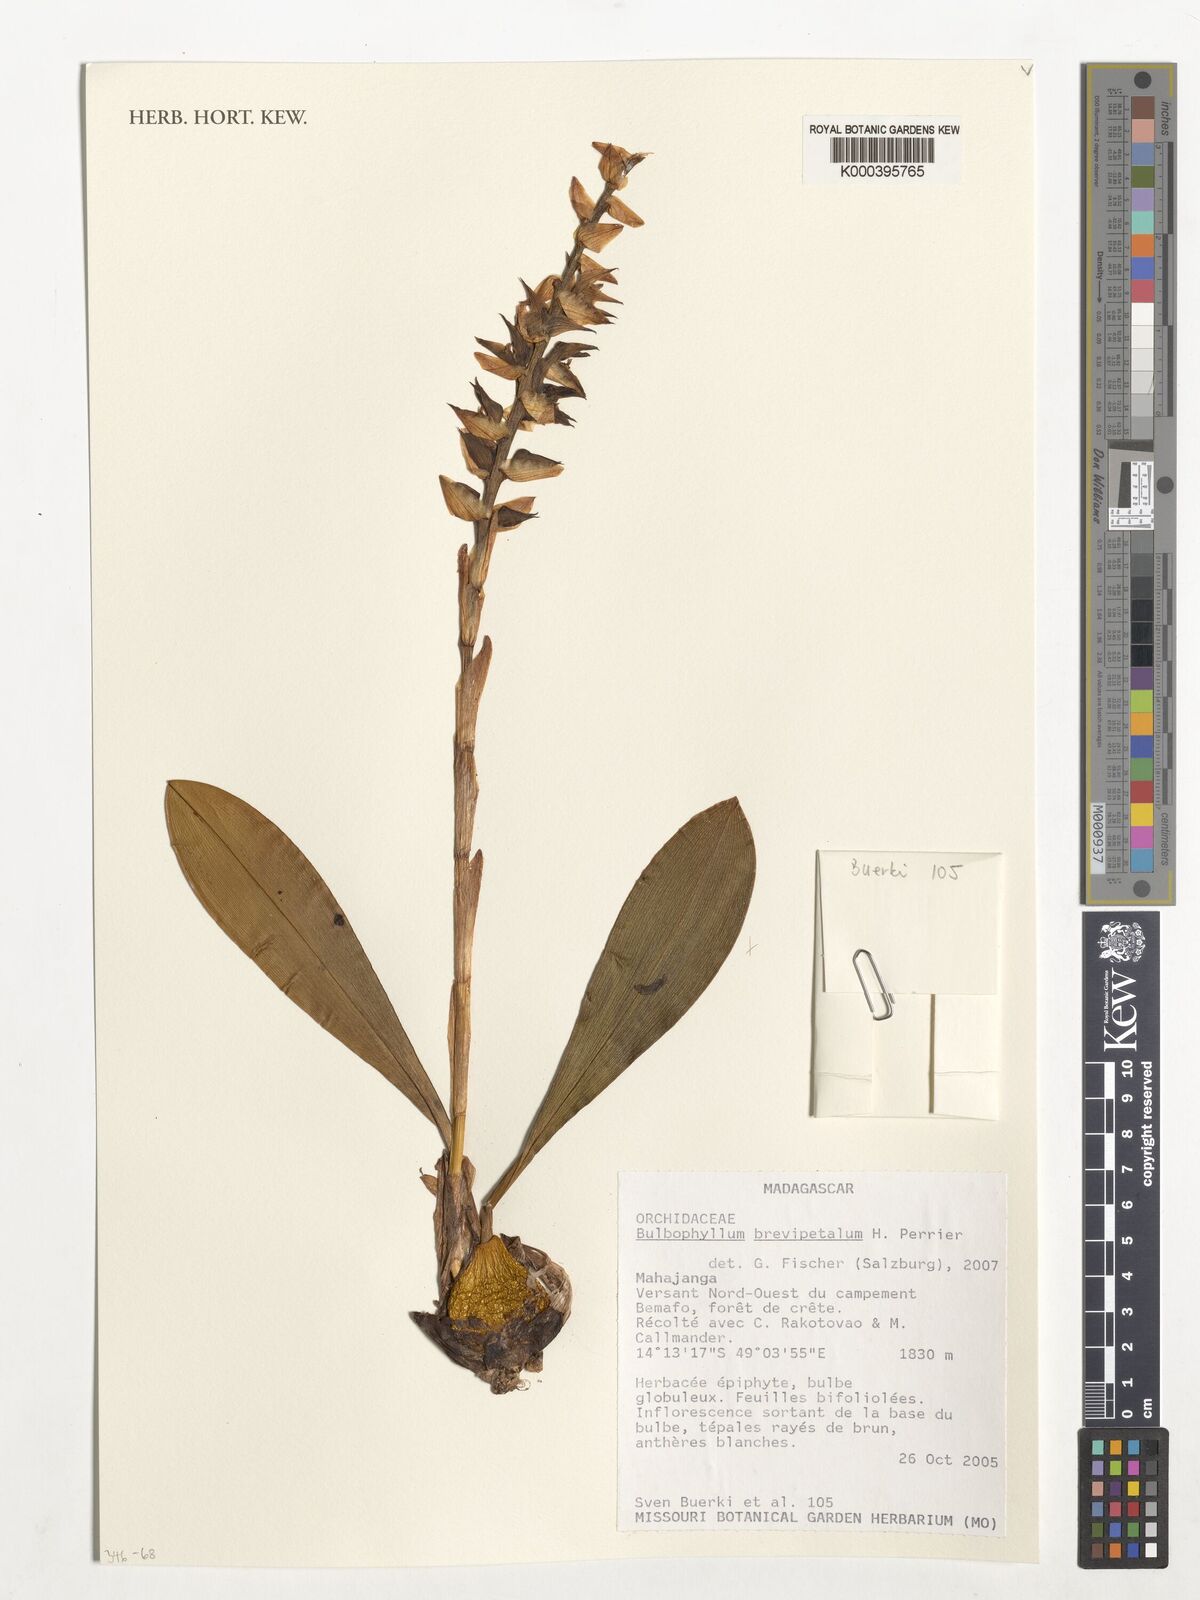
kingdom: Plantae
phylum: Tracheophyta
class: Liliopsida
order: Asparagales
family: Orchidaceae
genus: Bulbophyllum
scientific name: Bulbophyllum brevipetalum
